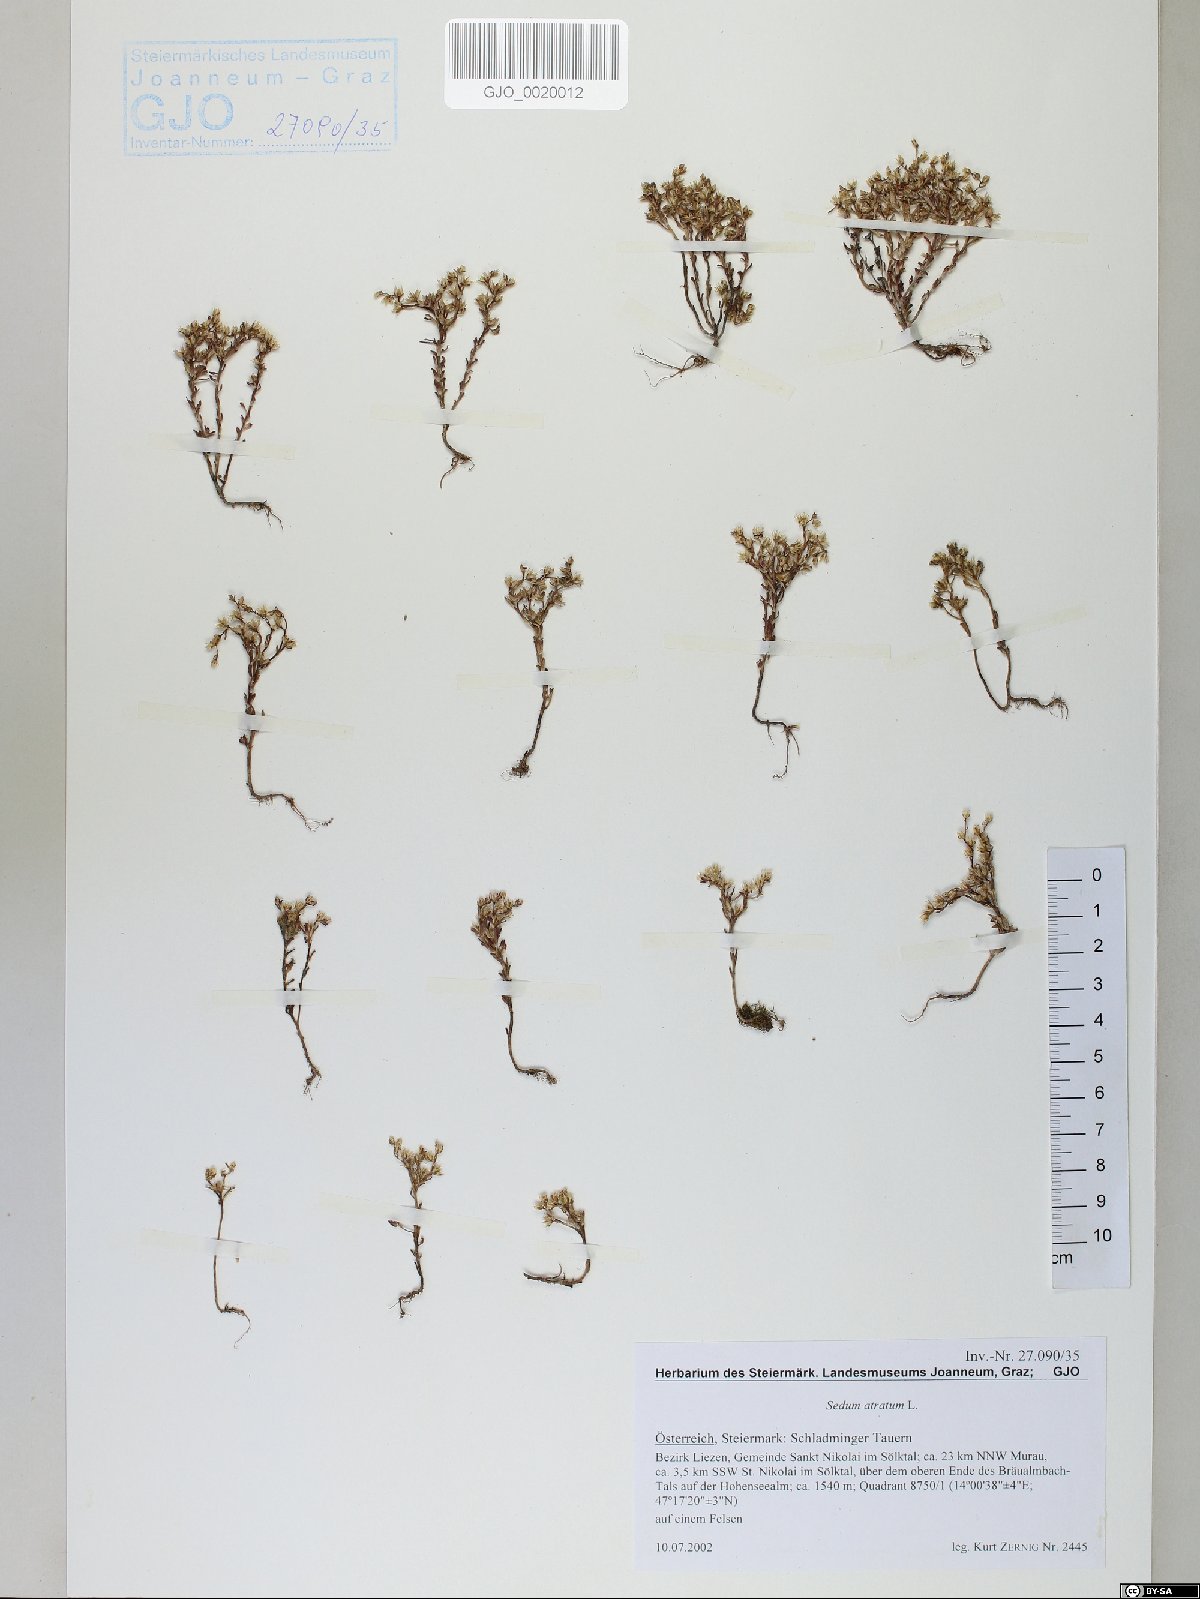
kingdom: Plantae
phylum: Tracheophyta
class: Magnoliopsida
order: Saxifragales
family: Crassulaceae
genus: Sedum
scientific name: Sedum atratum
